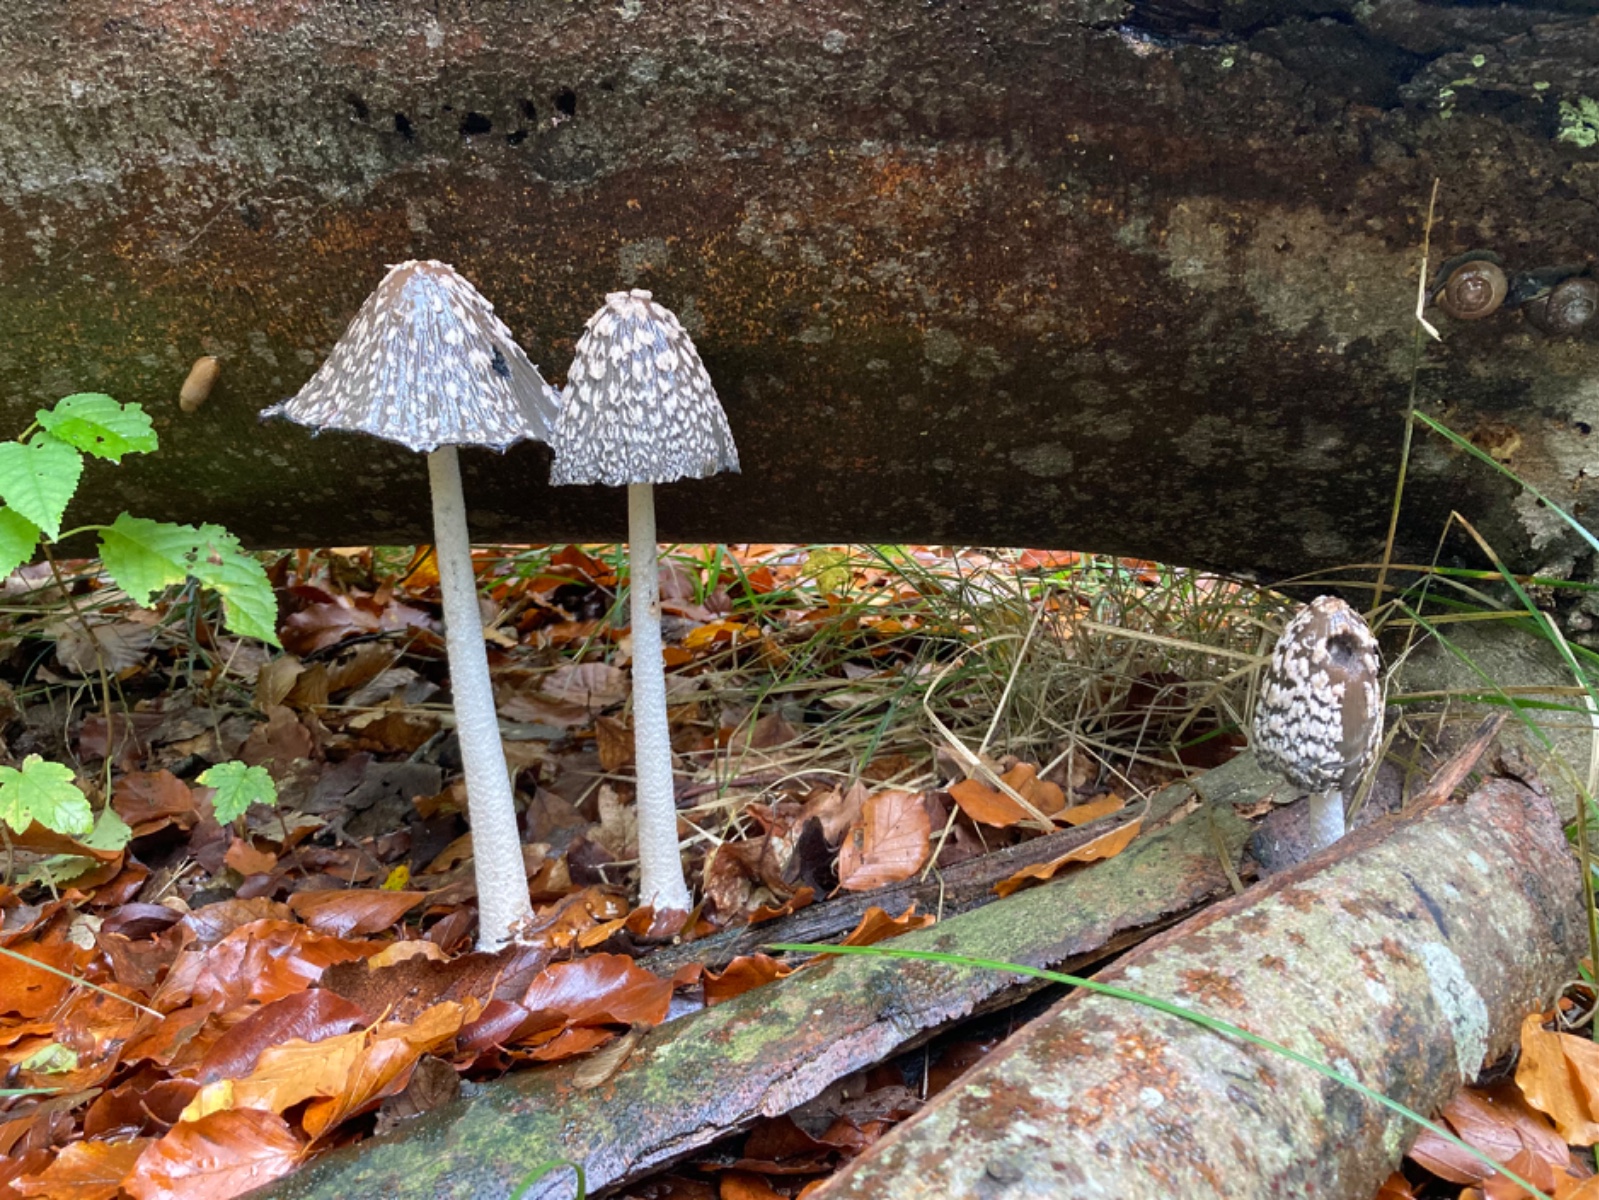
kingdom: Fungi
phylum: Basidiomycota
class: Agaricomycetes
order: Agaricales
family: Psathyrellaceae
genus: Coprinopsis
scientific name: Coprinopsis picacea
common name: skade-blækhat
